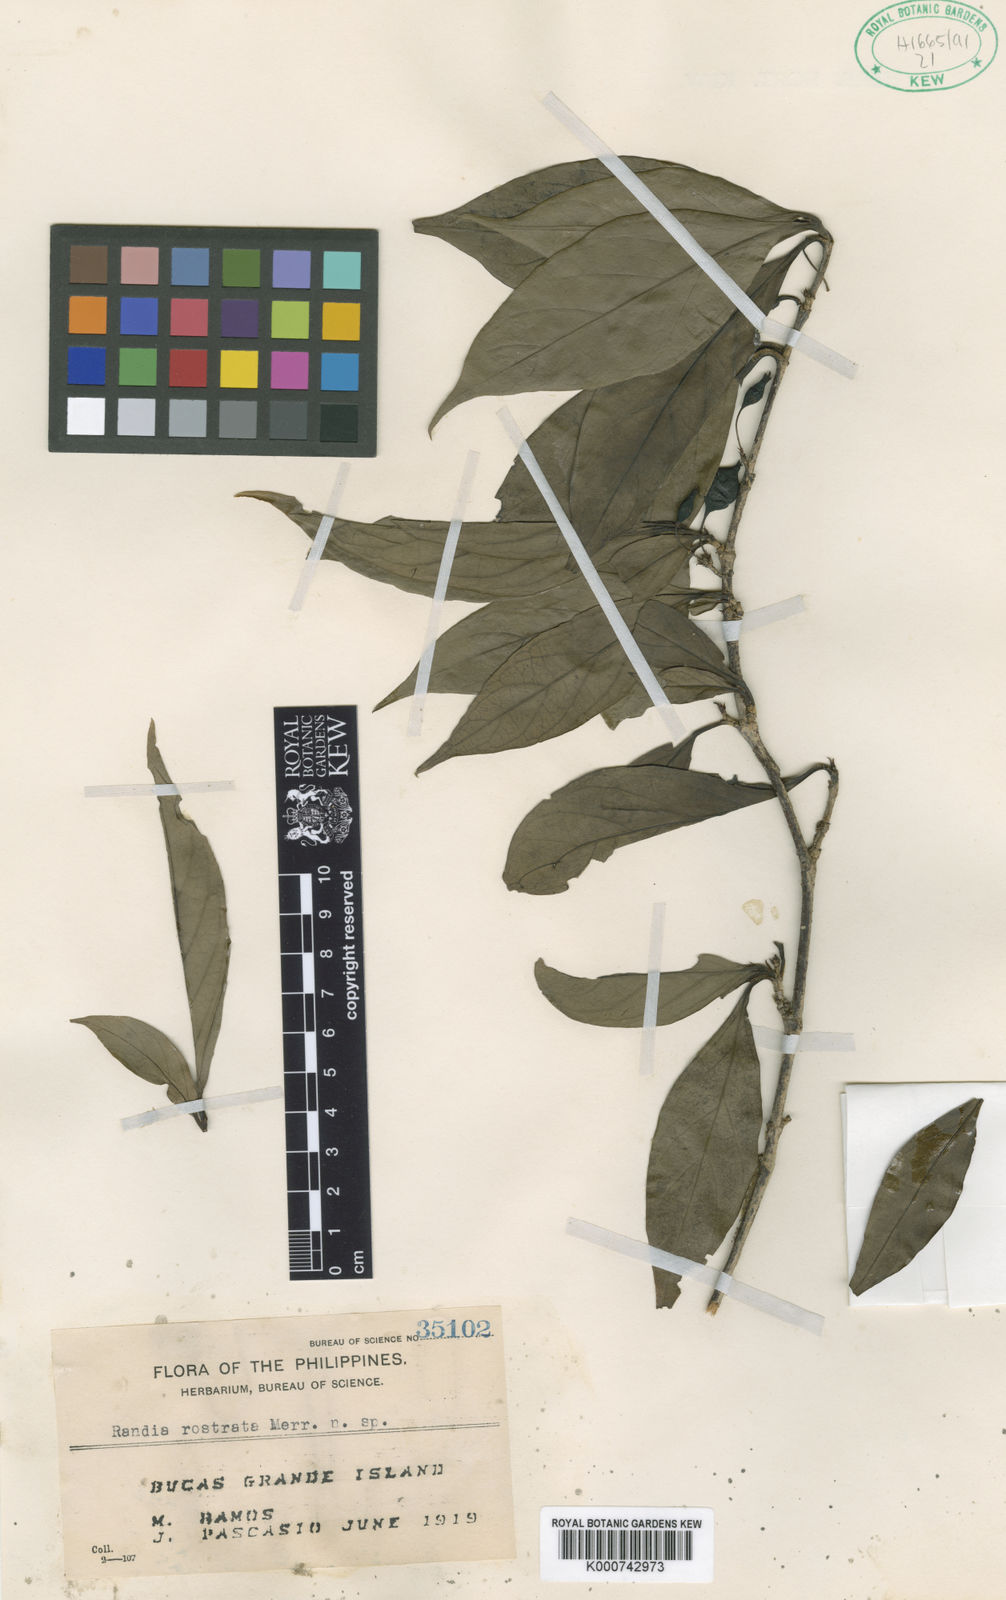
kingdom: Plantae
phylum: Tracheophyta
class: Magnoliopsida
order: Gentianales
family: Rubiaceae
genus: Randia
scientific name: Randia rostrata
